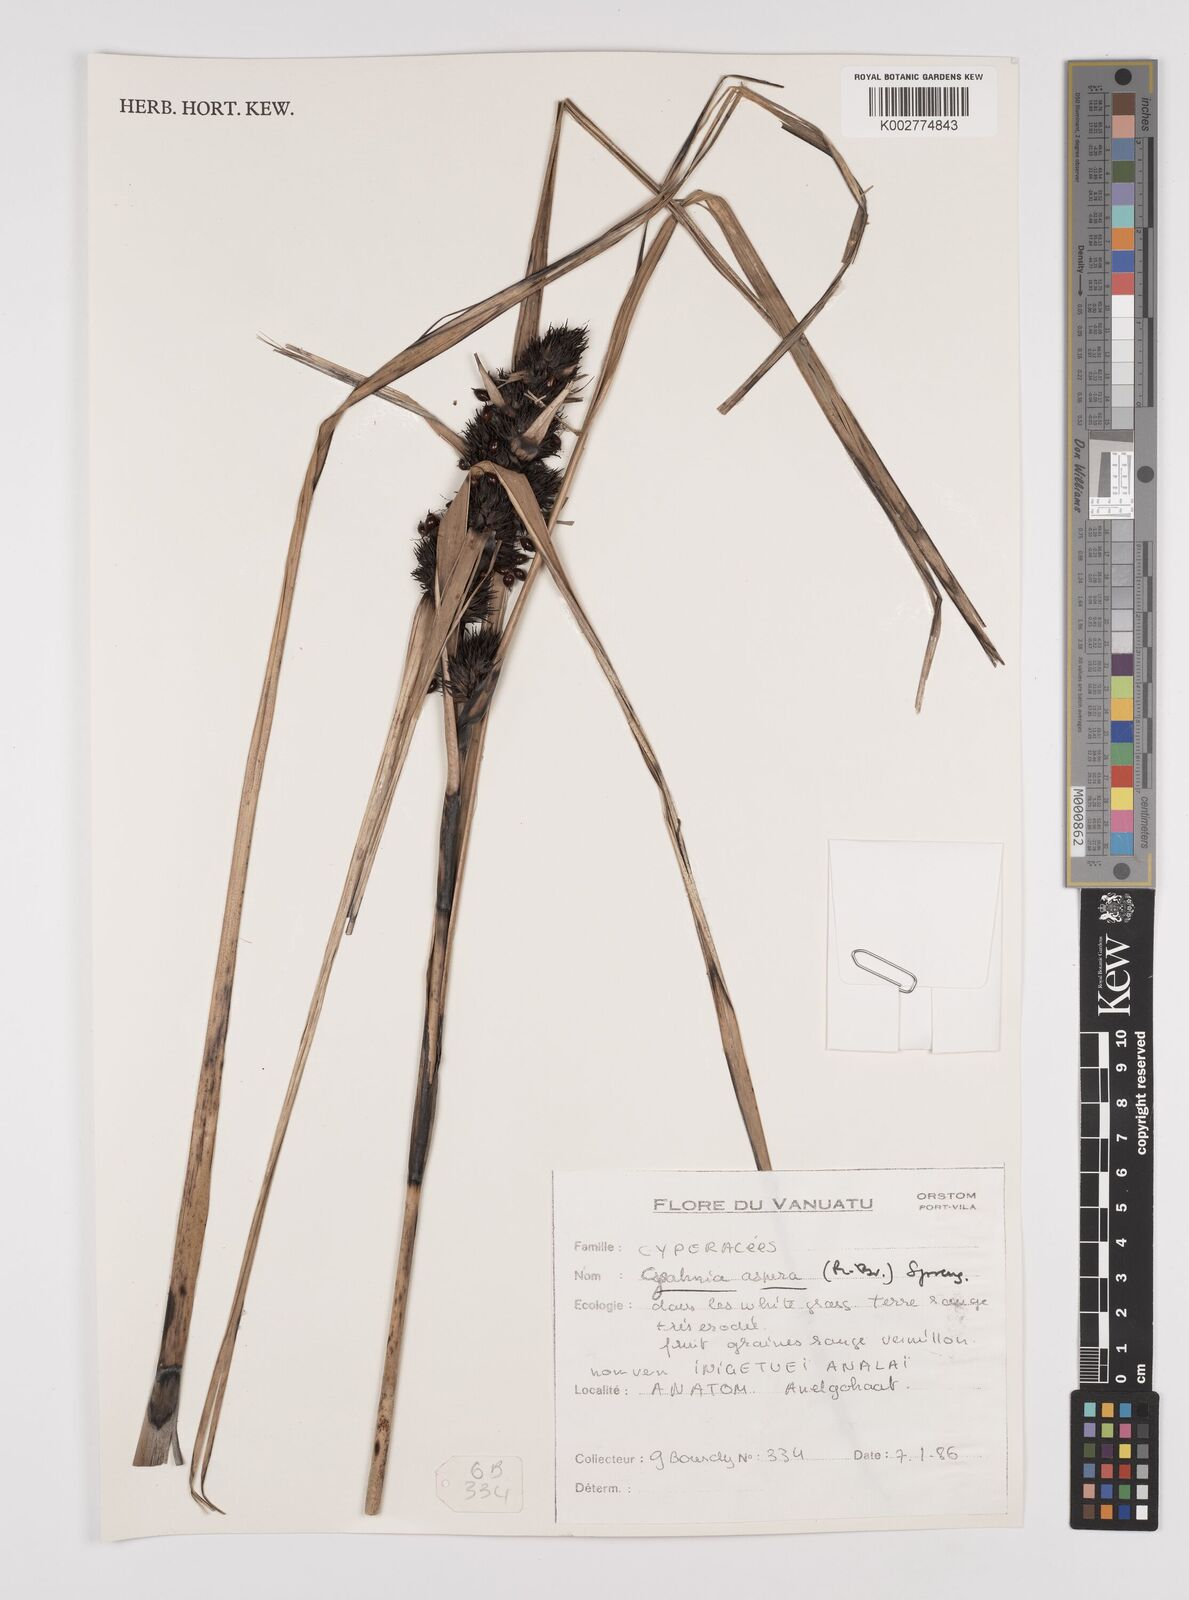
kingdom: Plantae
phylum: Tracheophyta
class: Liliopsida
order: Poales
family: Cyperaceae
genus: Gahnia
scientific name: Gahnia aspera
